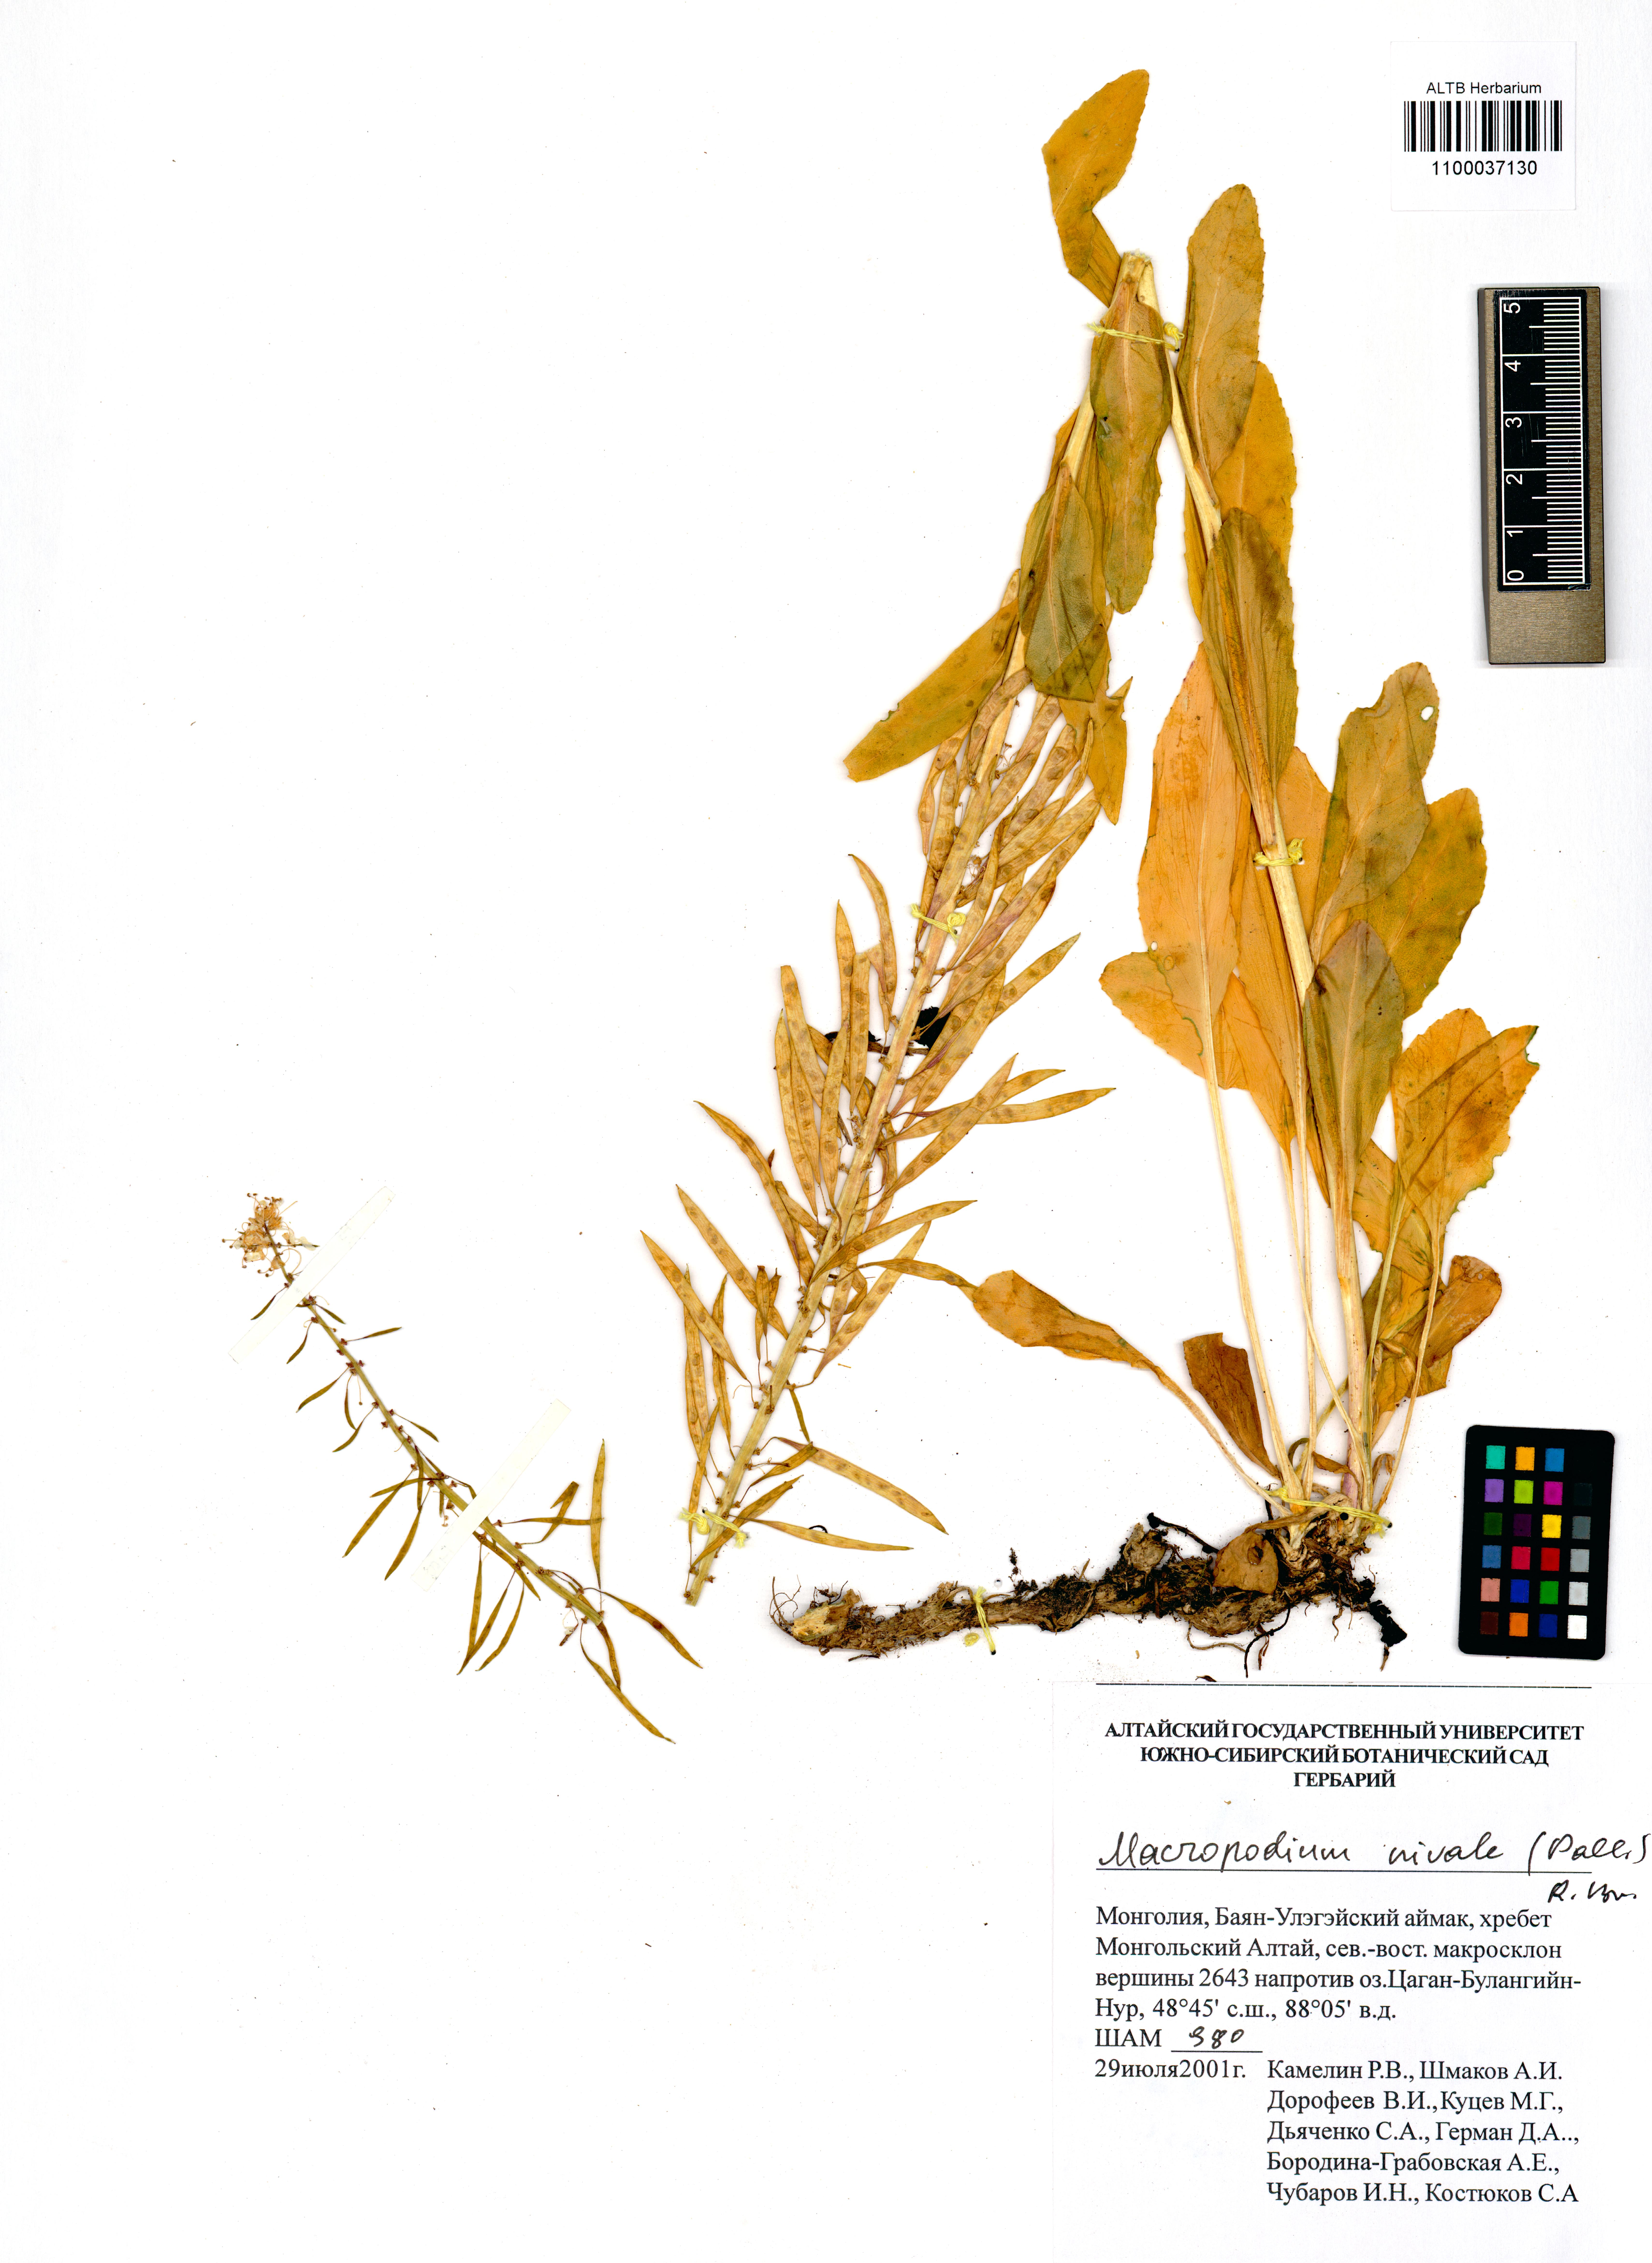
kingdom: Plantae
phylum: Tracheophyta
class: Magnoliopsida
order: Brassicales
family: Brassicaceae
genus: Macropodium
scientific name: Macropodium nivale
